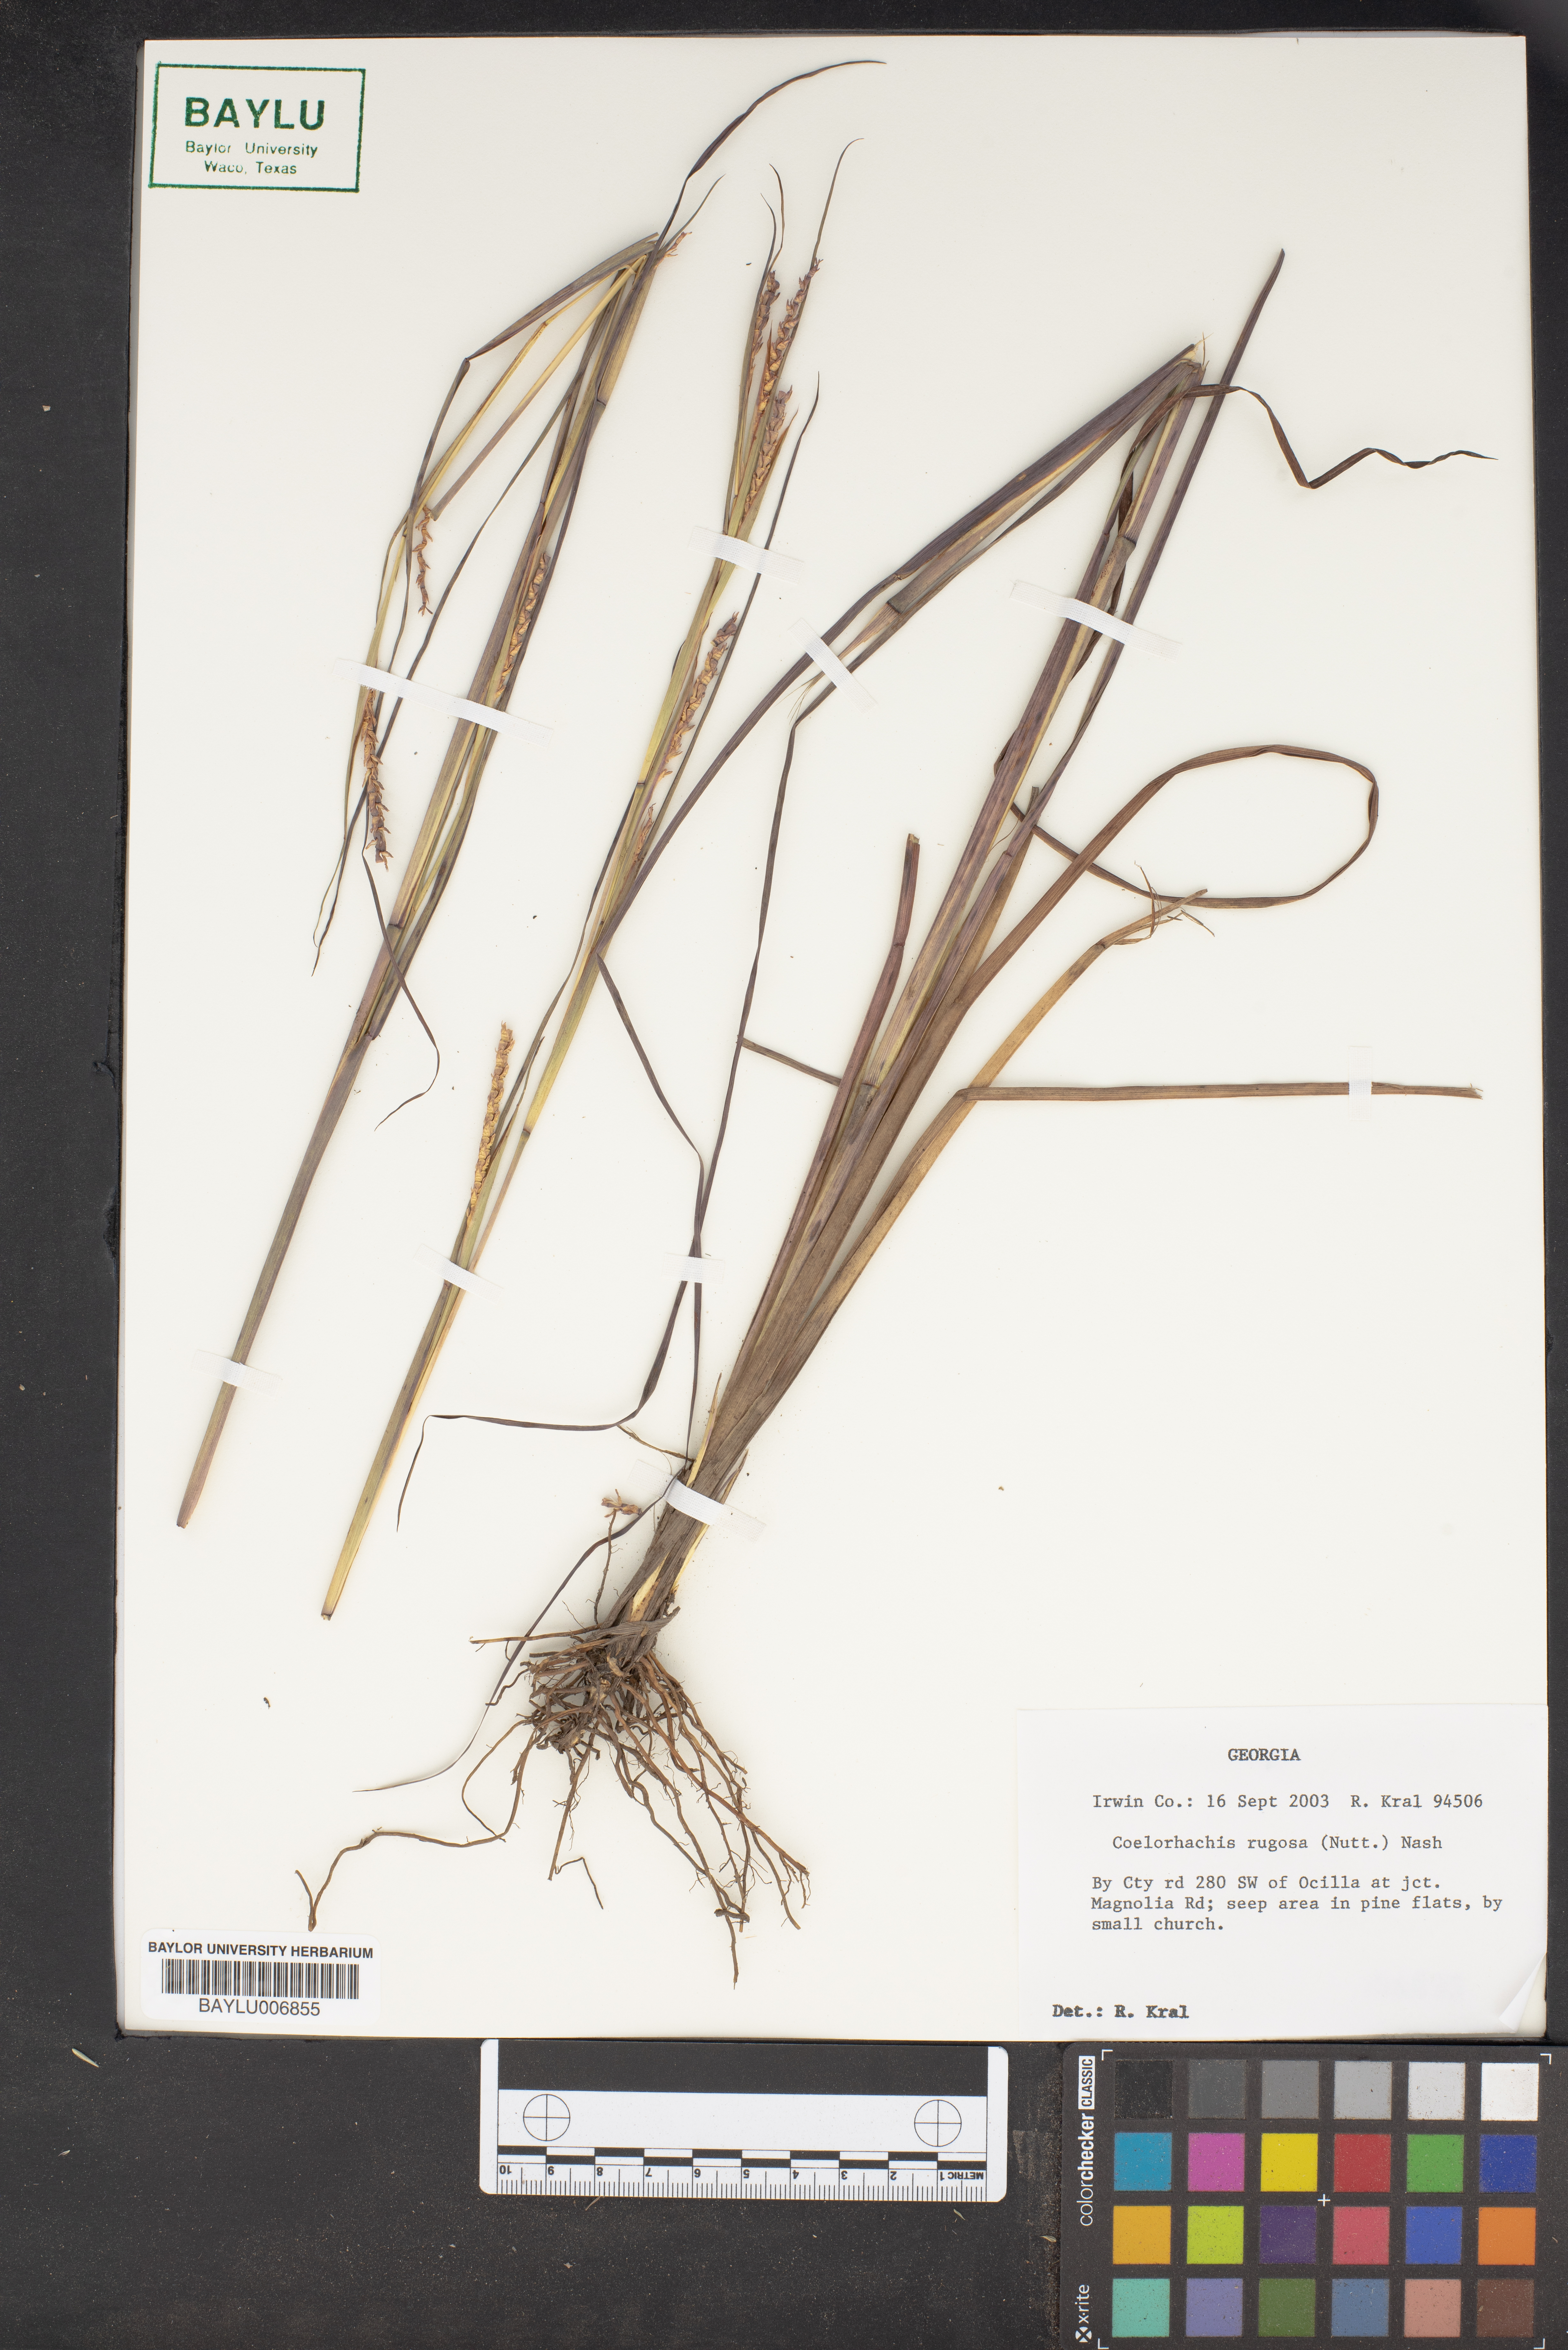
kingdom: Plantae
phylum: Tracheophyta
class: Liliopsida
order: Poales
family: Poaceae
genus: Rottboellia
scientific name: Rottboellia rugosa
